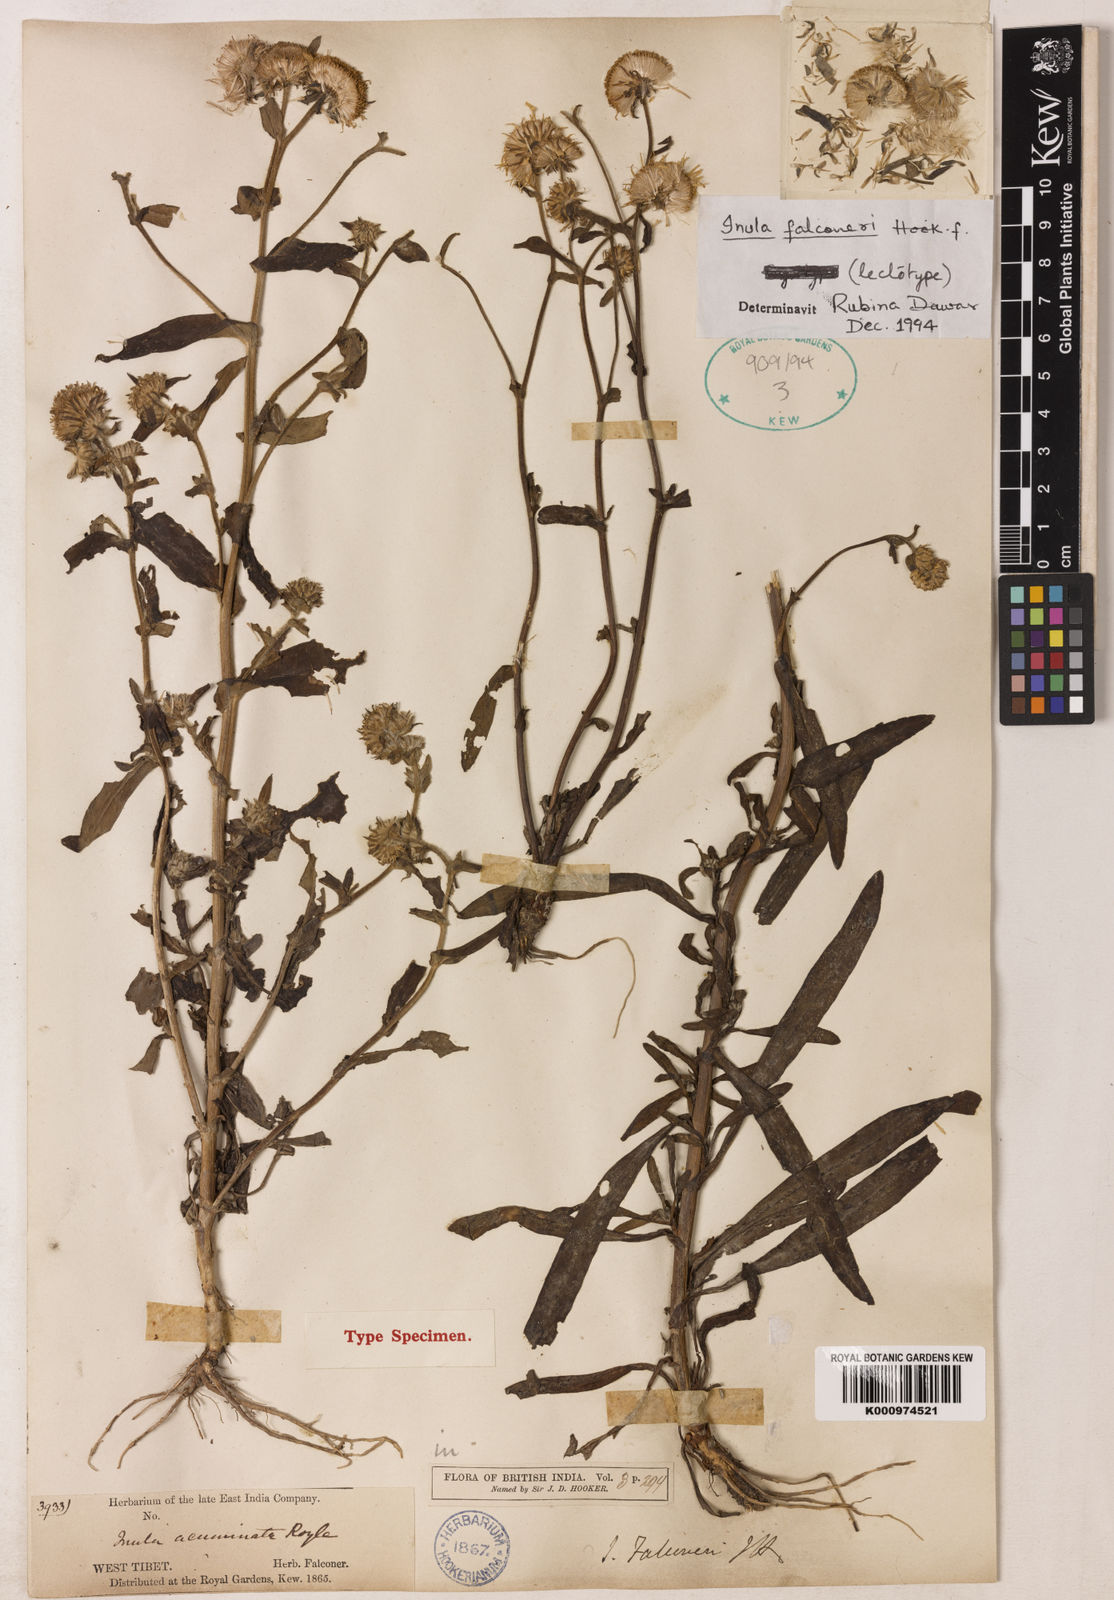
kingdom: Plantae
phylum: Tracheophyta
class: Magnoliopsida
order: Asterales
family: Asteraceae
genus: Pentanema
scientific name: Pentanema caspicum
